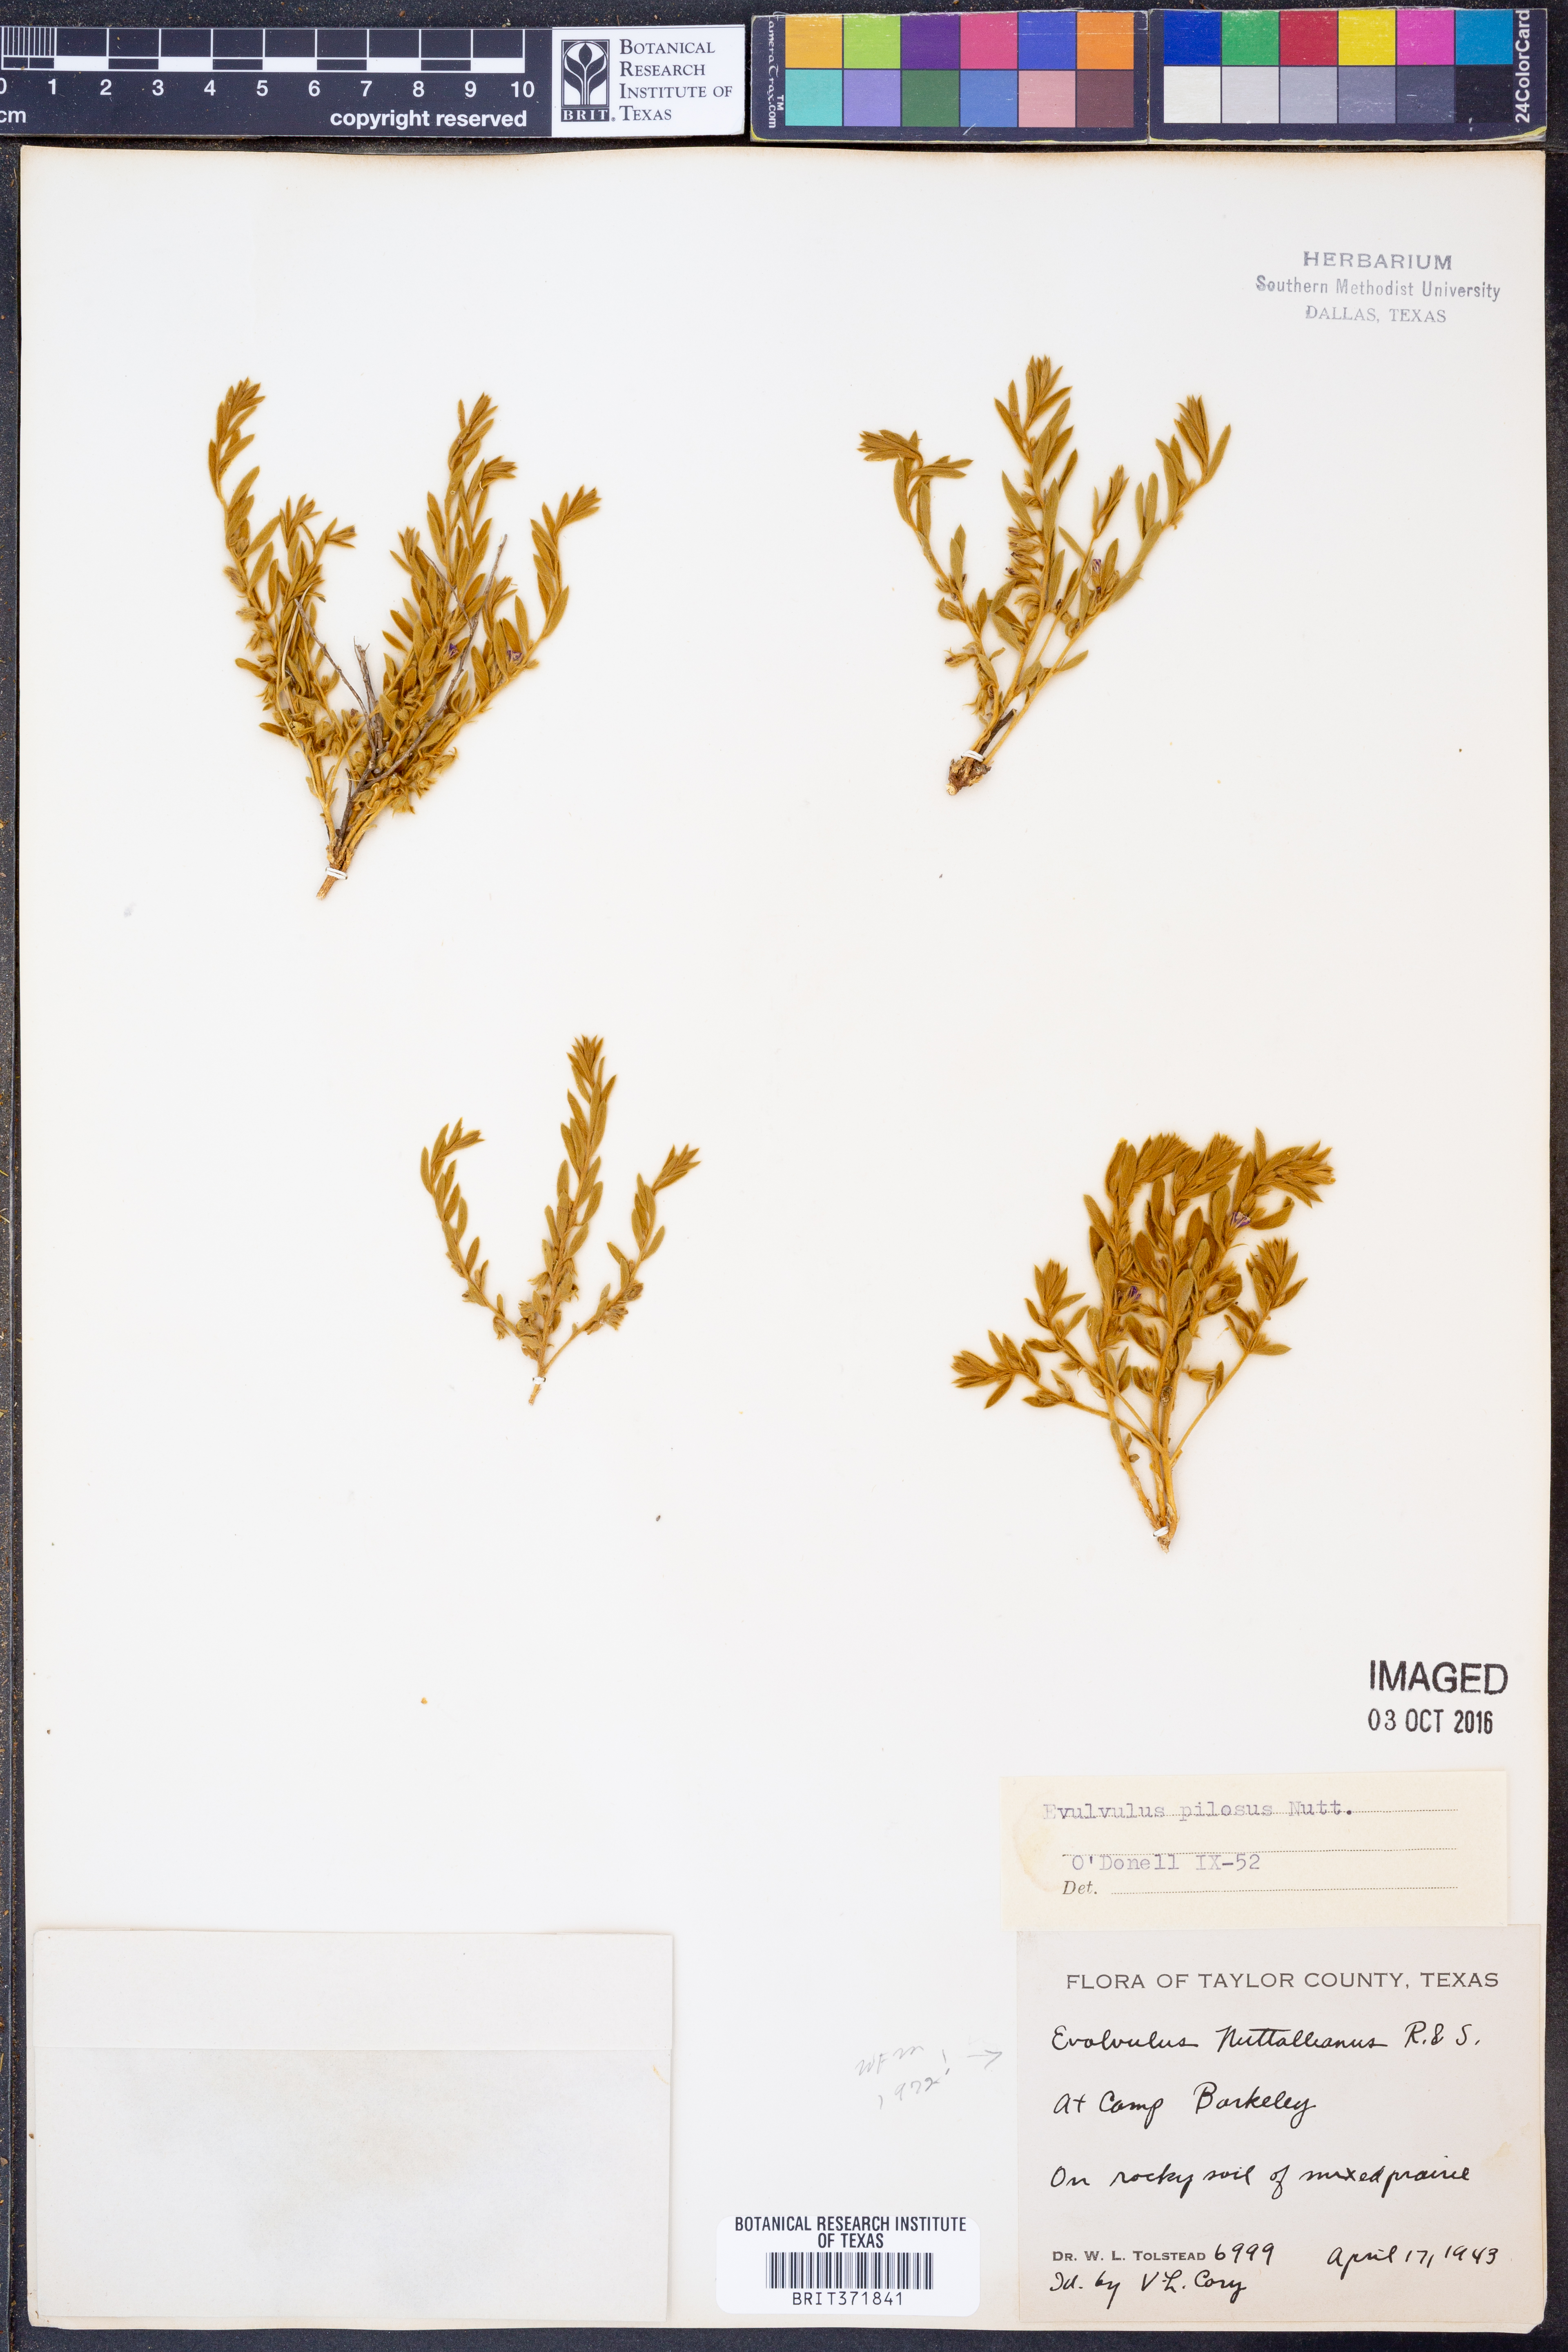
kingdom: Plantae
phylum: Tracheophyta
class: Magnoliopsida
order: Solanales
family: Convolvulaceae
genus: Evolvulus
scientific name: Evolvulus nuttallianus
